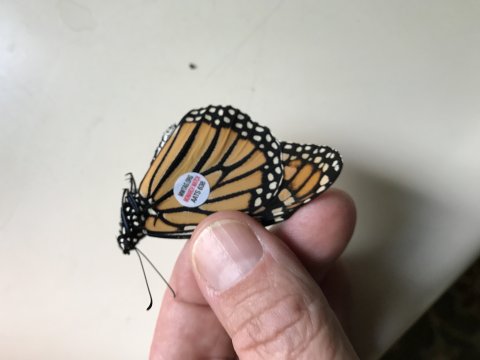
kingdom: Animalia
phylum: Arthropoda
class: Insecta
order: Lepidoptera
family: Nymphalidae
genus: Danaus
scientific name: Danaus plexippus
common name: Monarch
